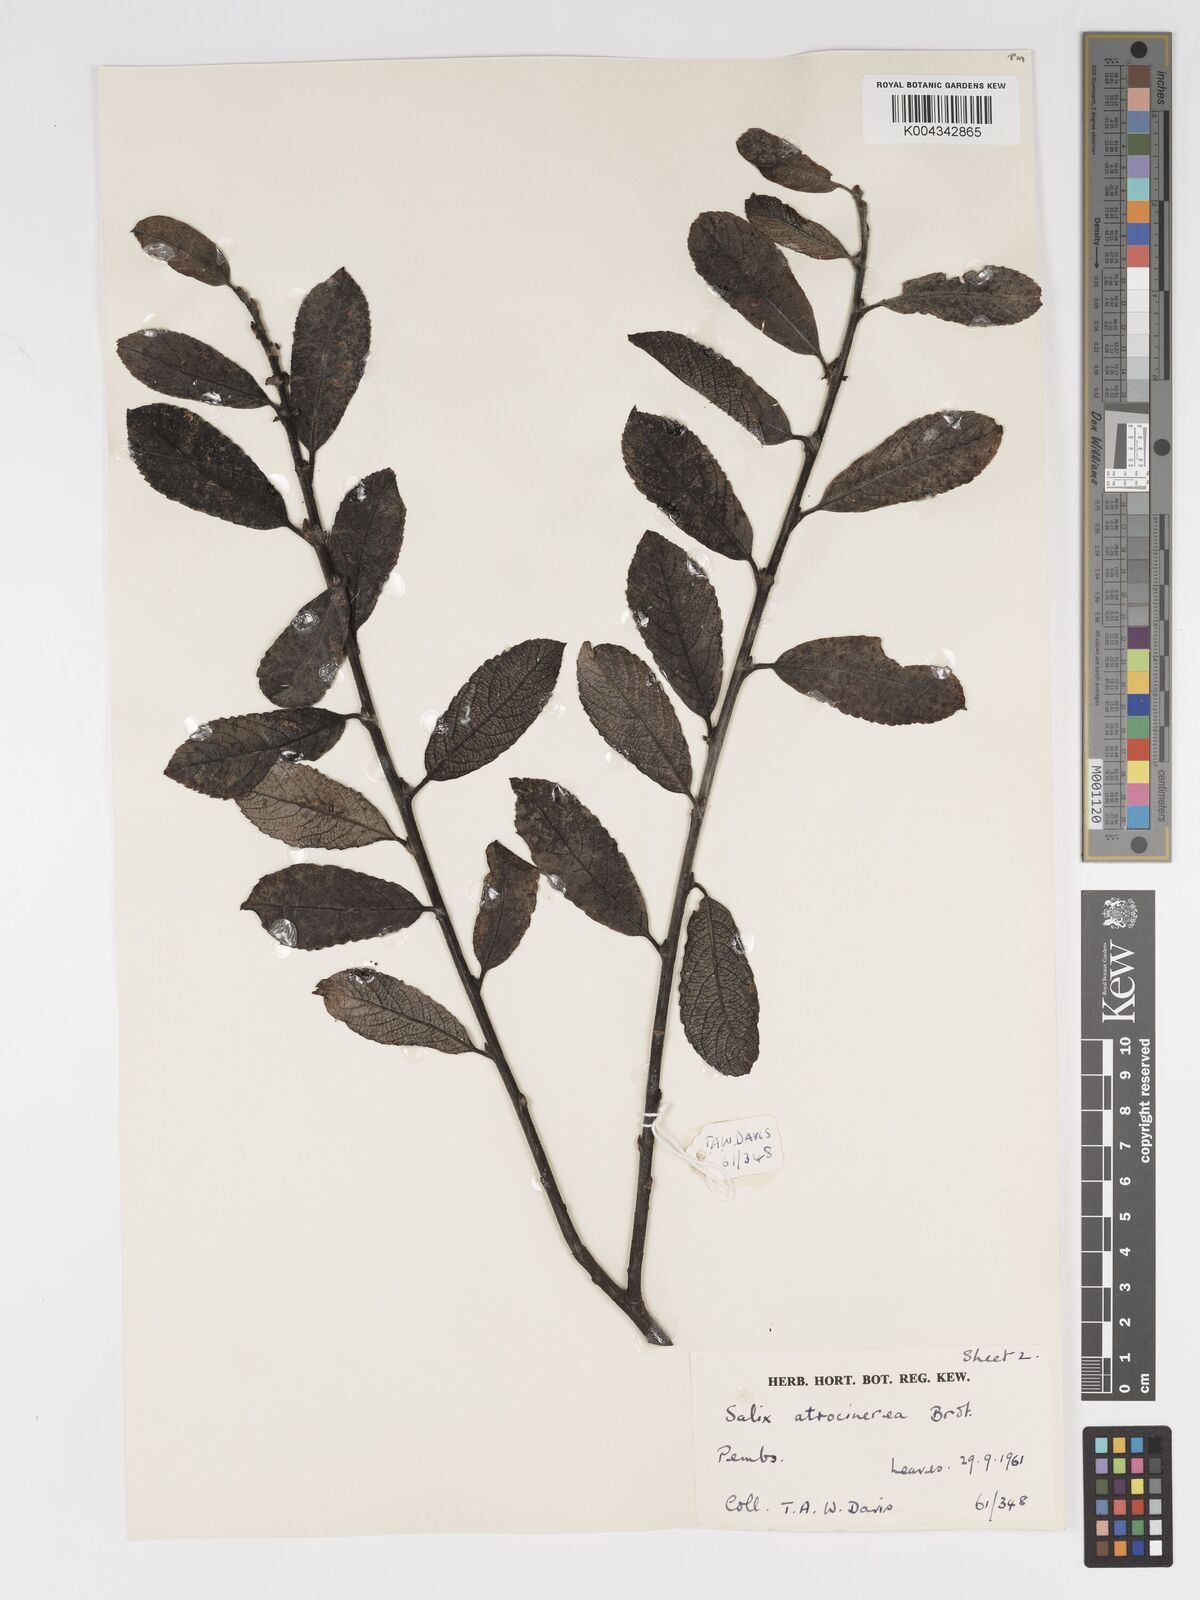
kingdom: Plantae
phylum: Tracheophyta
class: Magnoliopsida
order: Malpighiales
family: Salicaceae
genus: Salix
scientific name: Salix atrocinerea
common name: Rusty willow
